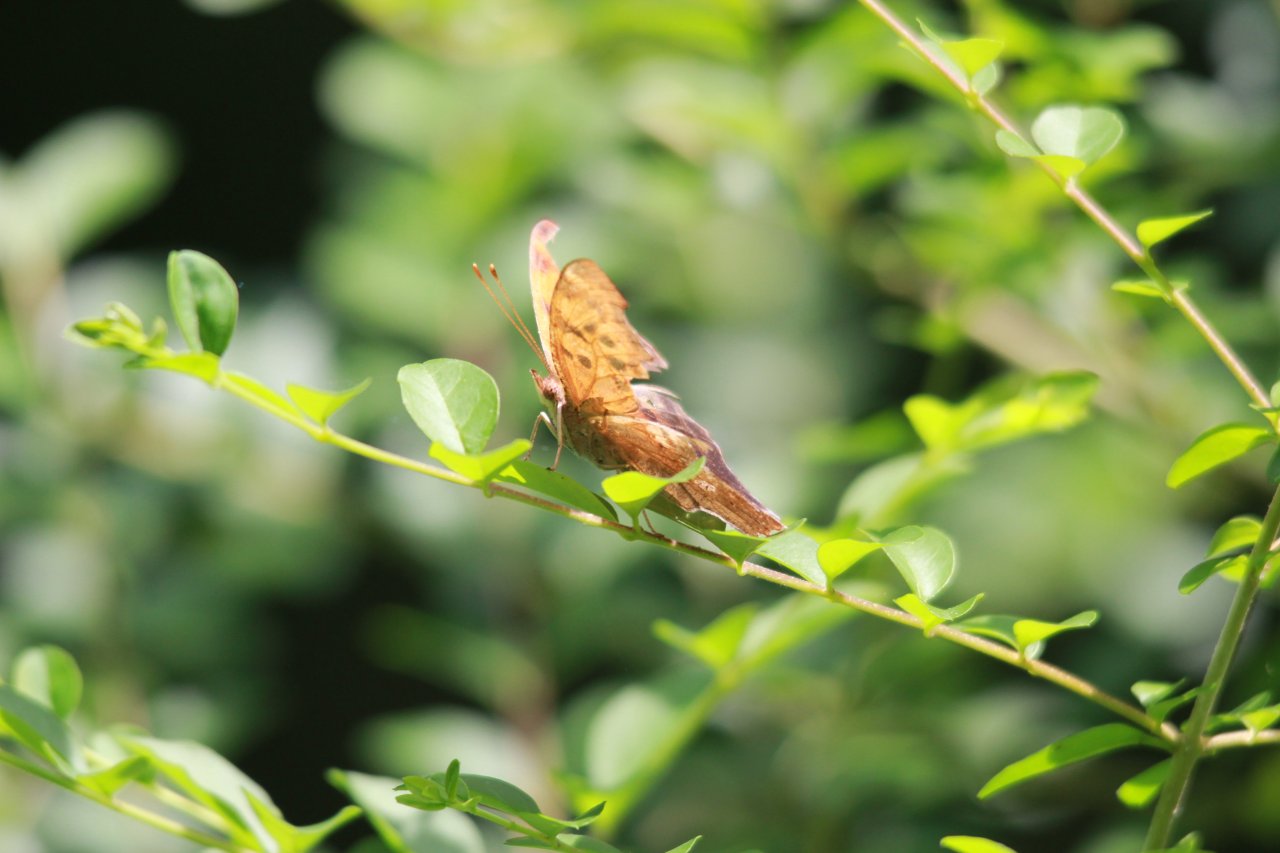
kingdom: Animalia
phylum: Arthropoda
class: Insecta
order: Lepidoptera
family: Nymphalidae
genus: Polygonia
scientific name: Polygonia comma
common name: Eastern Comma
